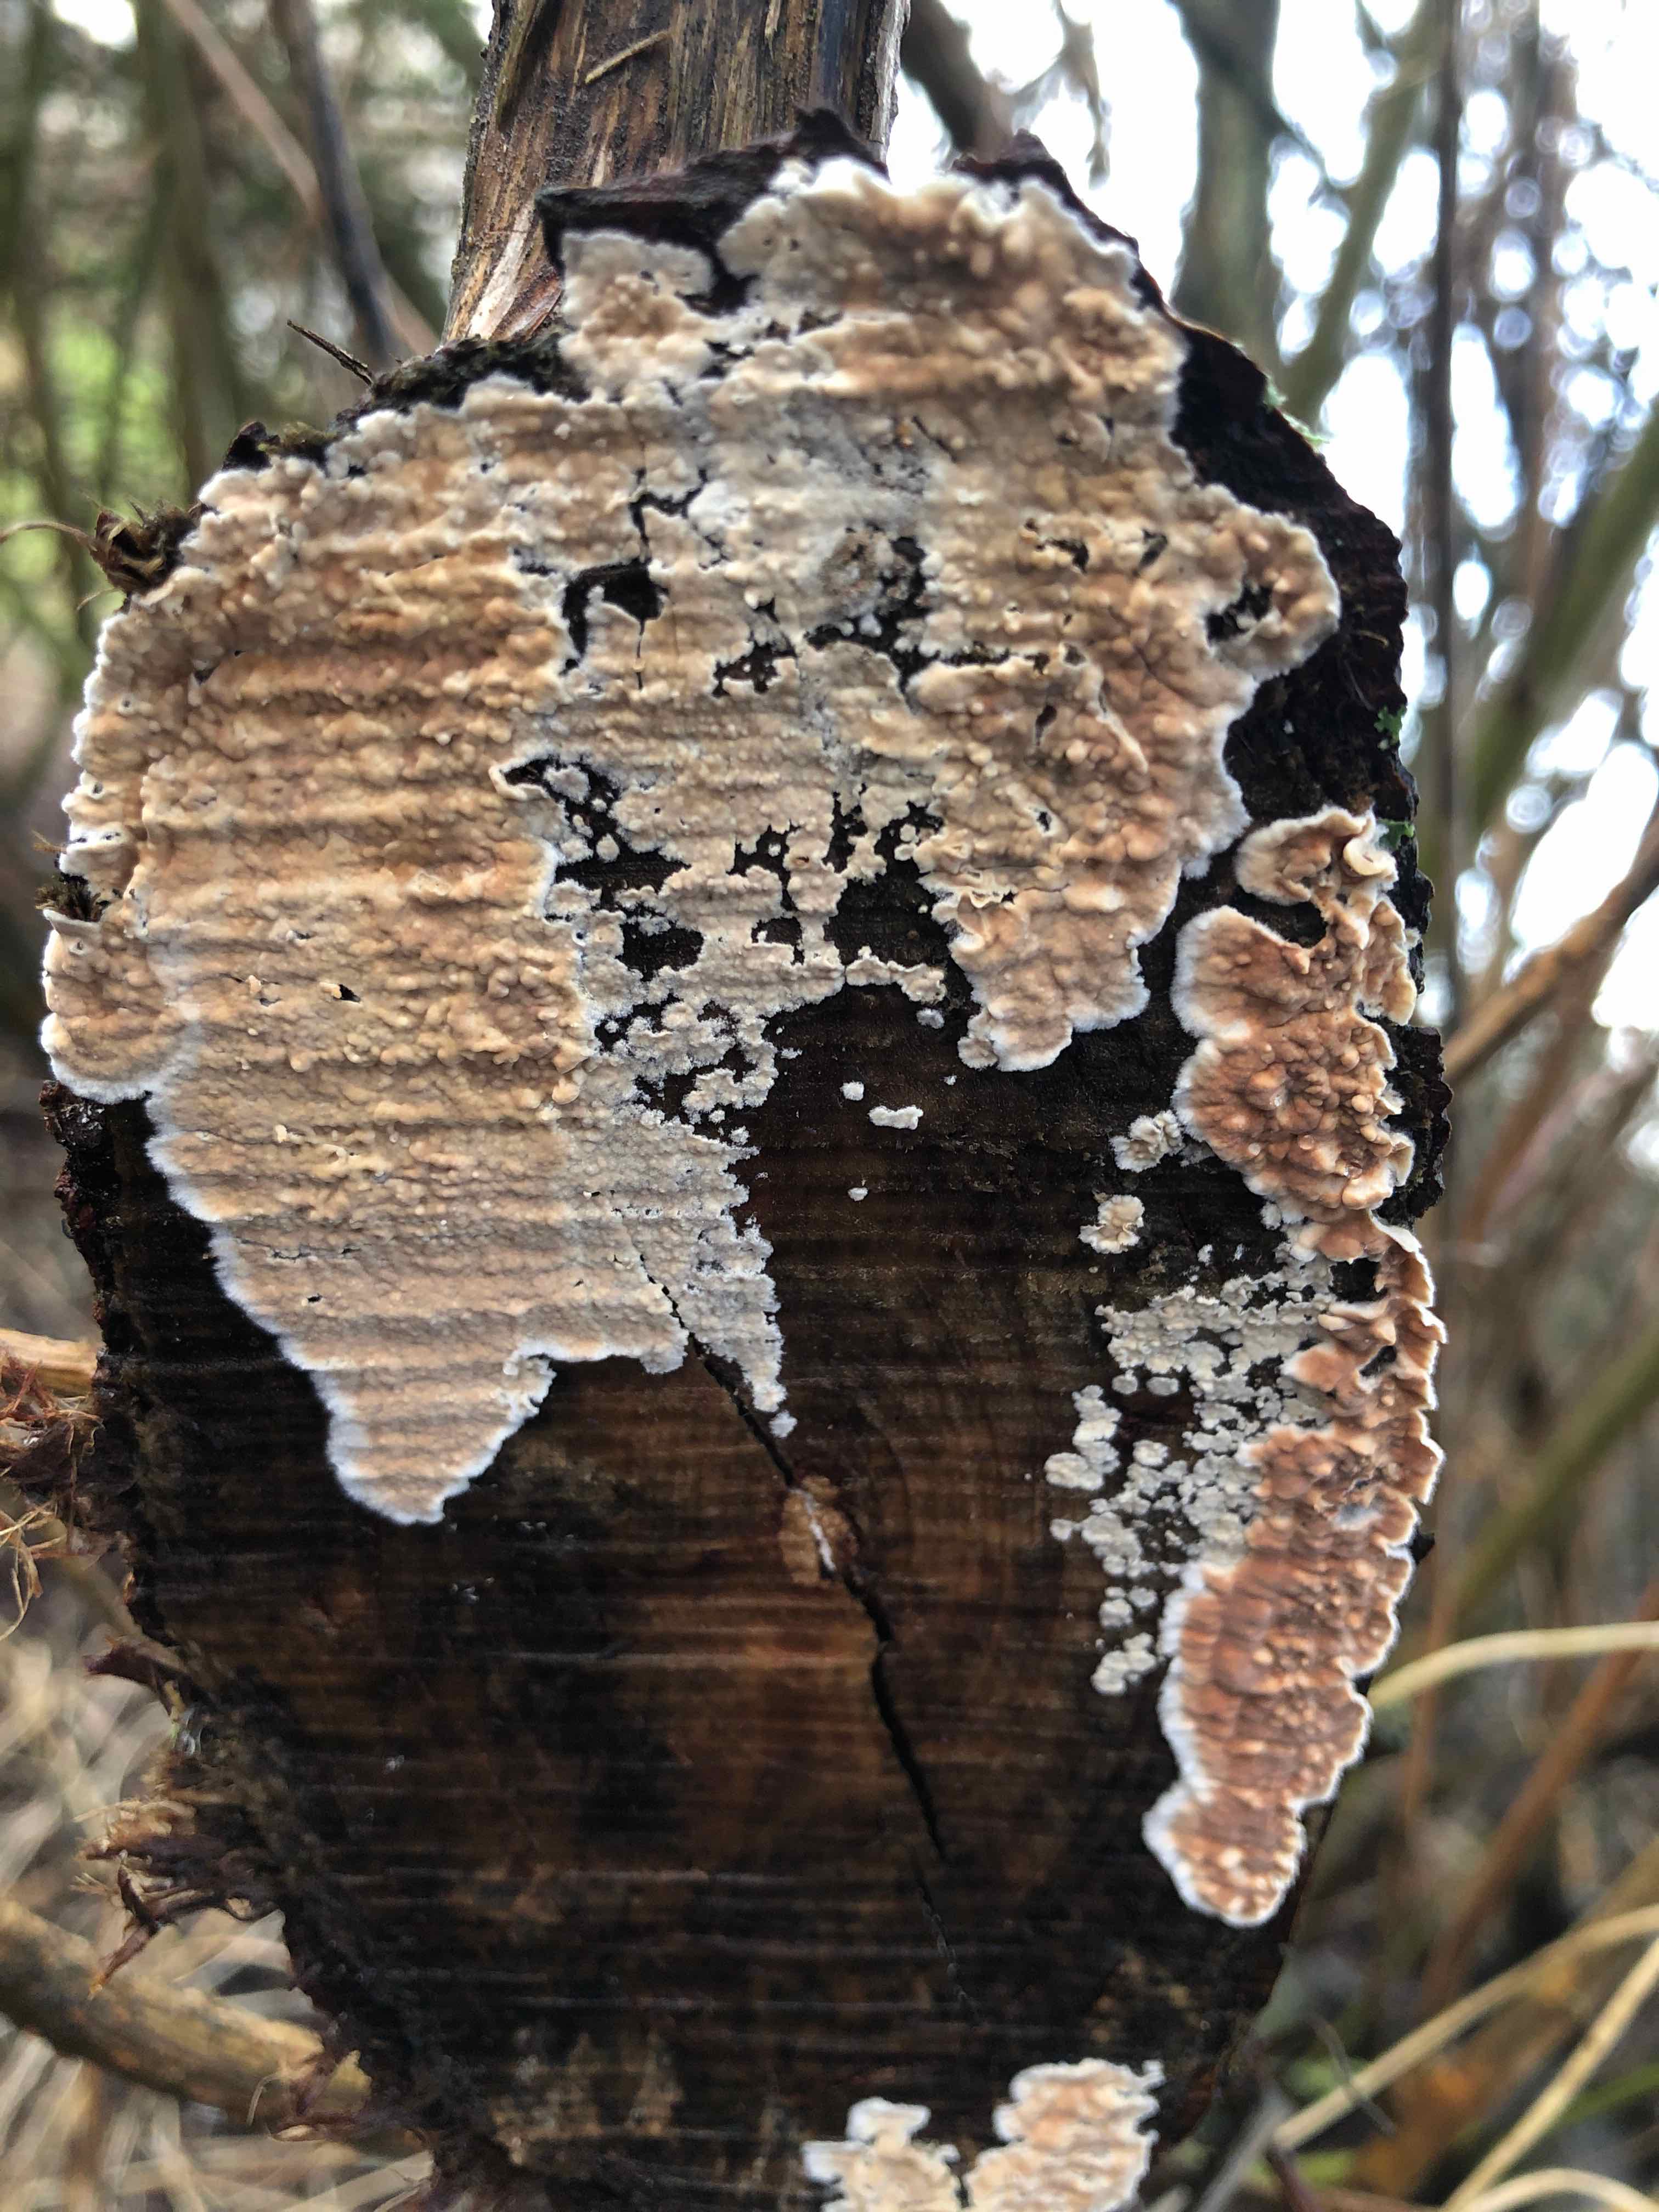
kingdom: Fungi
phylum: Basidiomycota
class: Agaricomycetes
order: Agaricales
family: Physalacriaceae
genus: Cylindrobasidium
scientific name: Cylindrobasidium evolvens
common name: sprækkehinde
